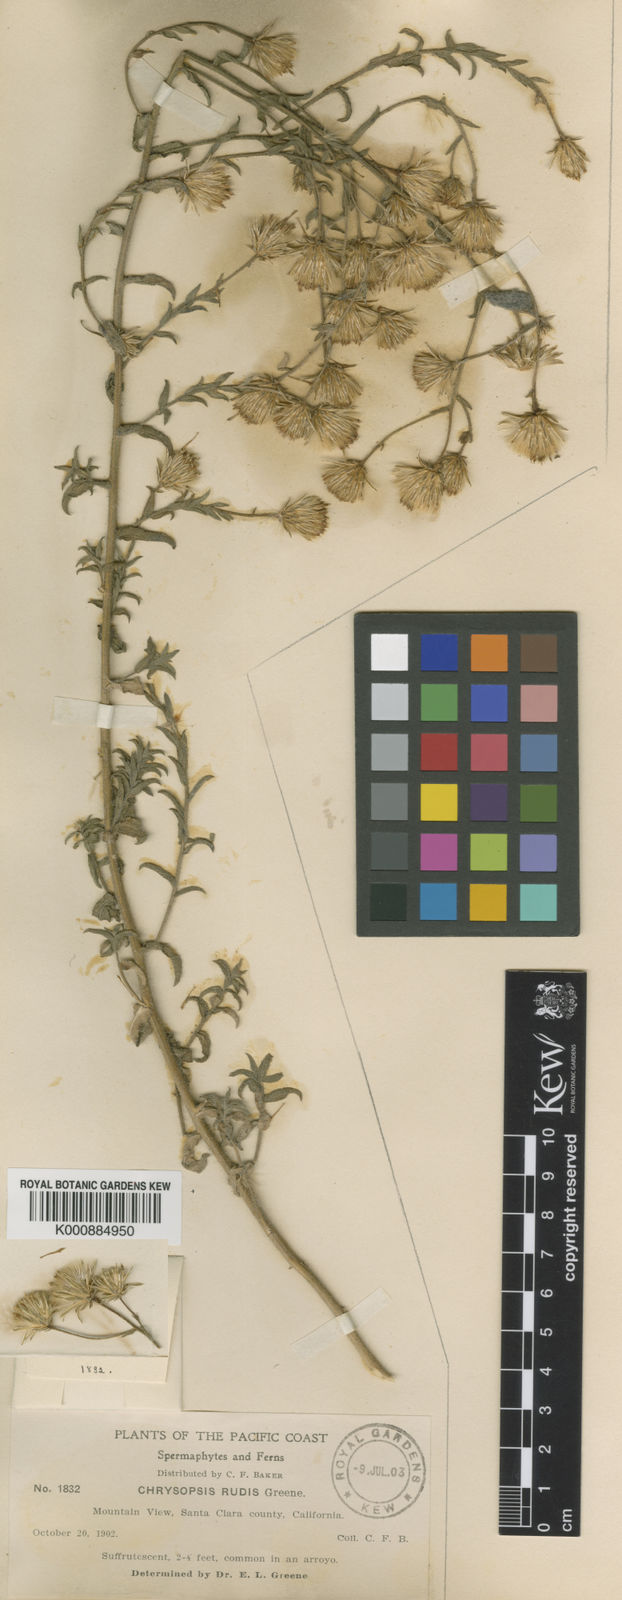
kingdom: Plantae
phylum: Tracheophyta
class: Magnoliopsida
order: Asterales
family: Asteraceae
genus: Heterotheca
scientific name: Heterotheca
